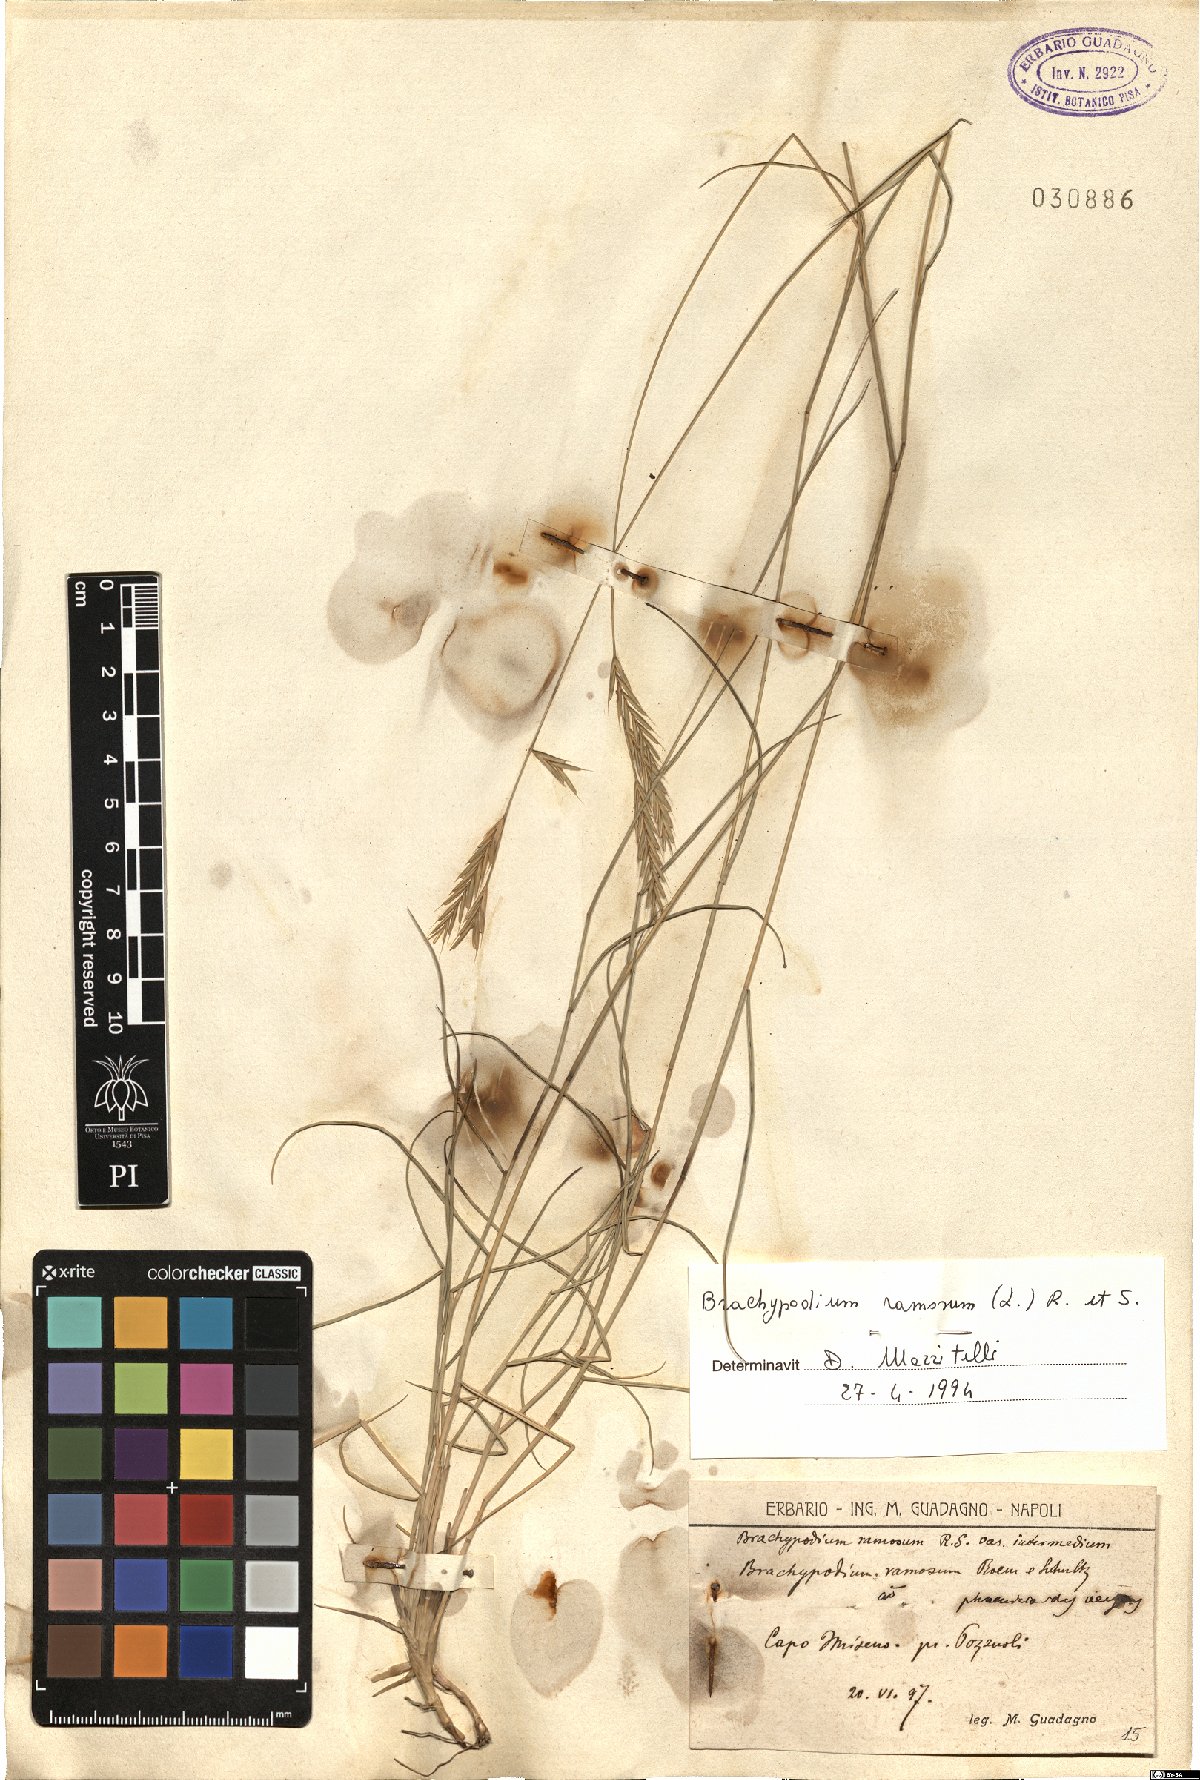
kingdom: Plantae
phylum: Tracheophyta
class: Liliopsida
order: Poales
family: Poaceae
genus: Brachypodium
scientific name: Brachypodium retusum
